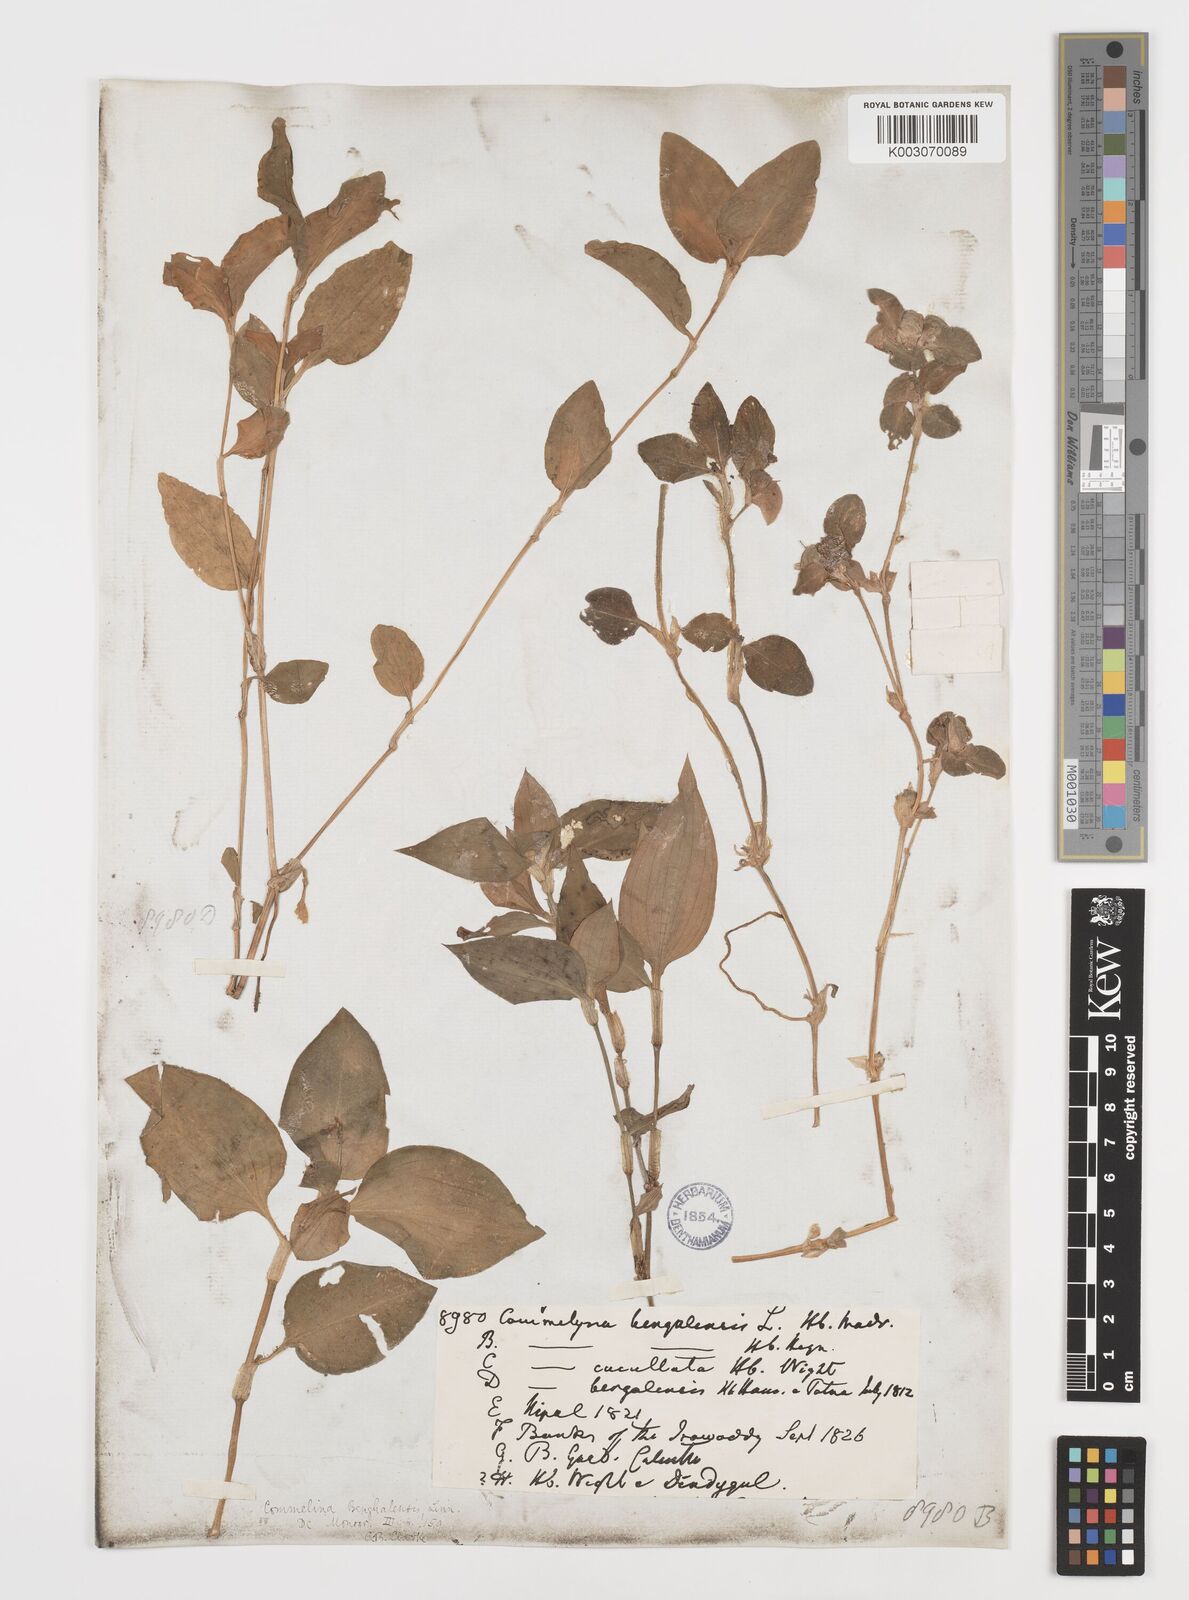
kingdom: Plantae
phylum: Tracheophyta
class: Liliopsida
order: Commelinales
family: Commelinaceae
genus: Commelina
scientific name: Commelina benghalensis
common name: Jio
